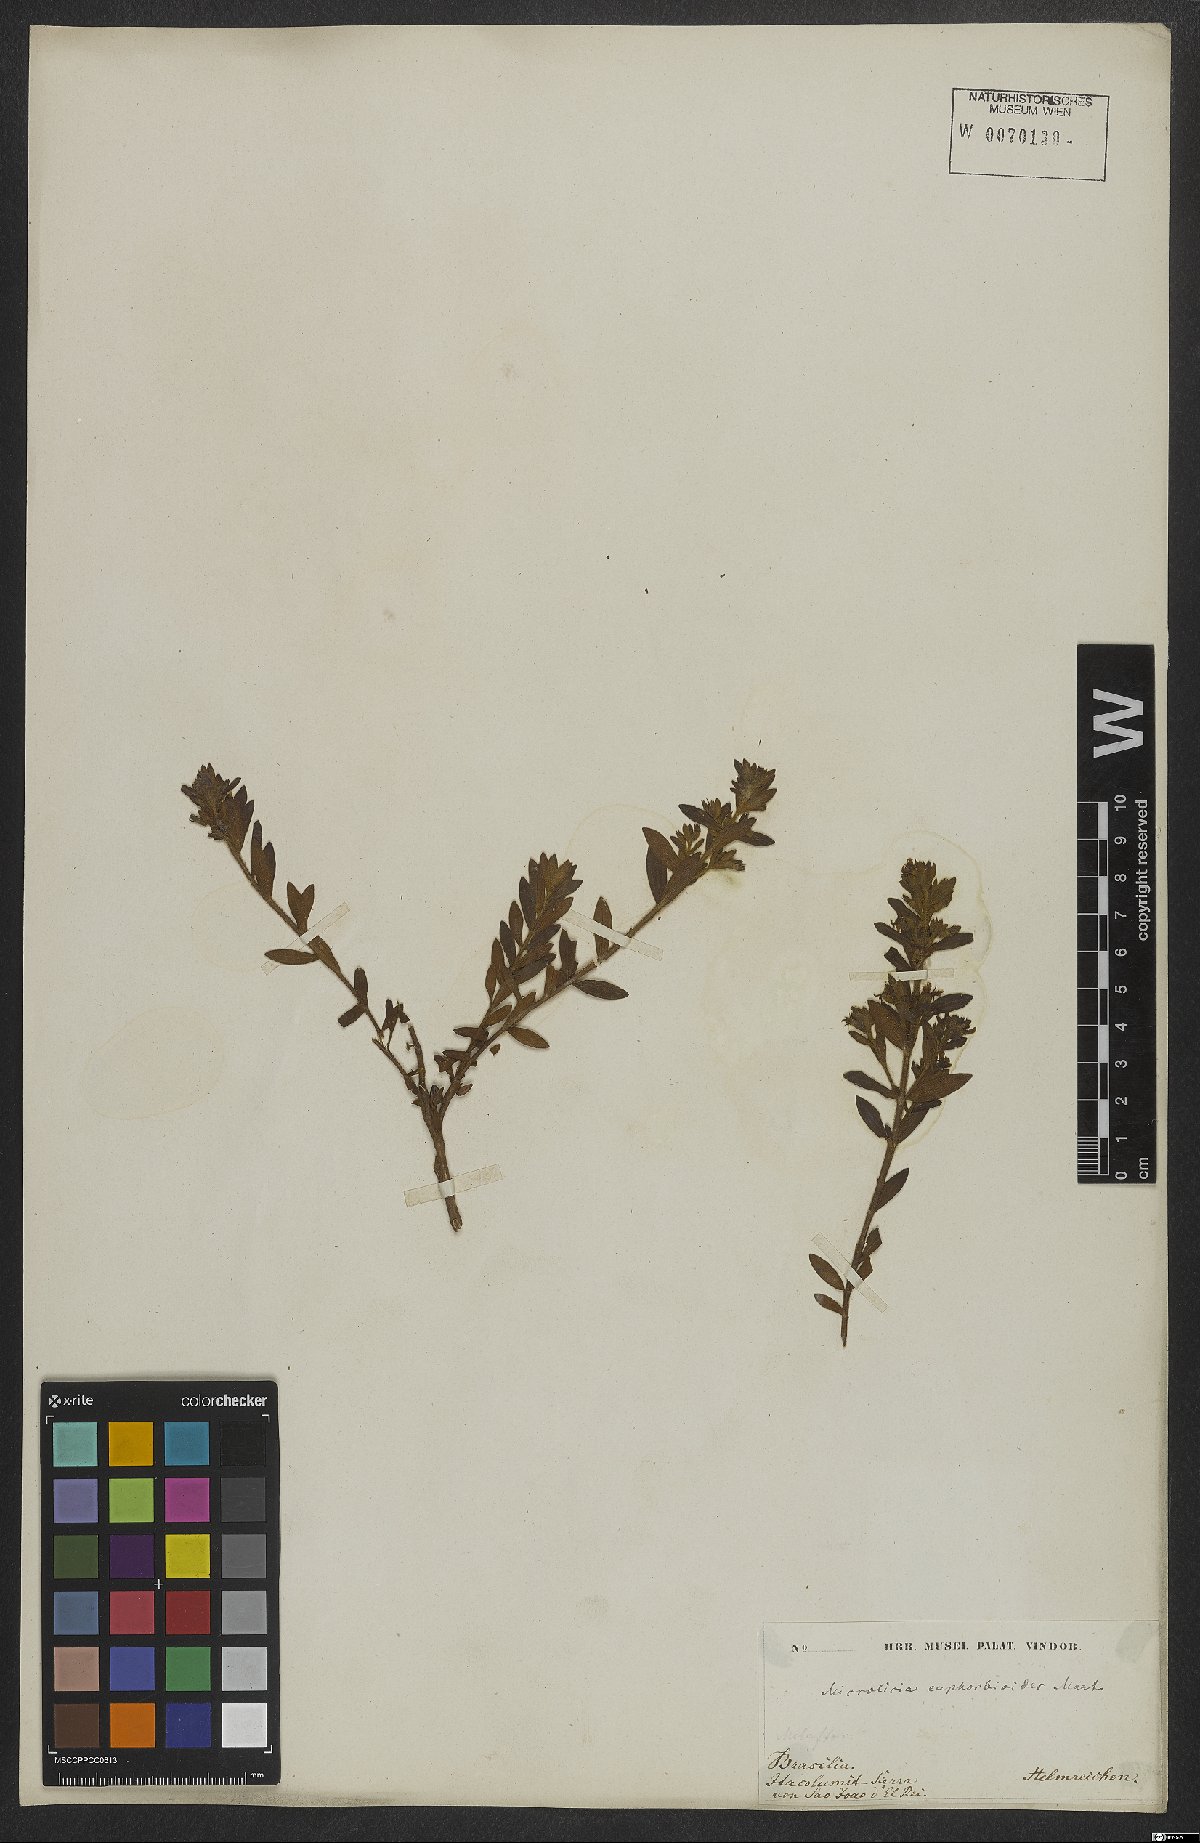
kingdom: Plantae
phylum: Tracheophyta
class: Magnoliopsida
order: Myrtales
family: Melastomataceae
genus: Microlicia
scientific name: Microlicia euphorbioides
